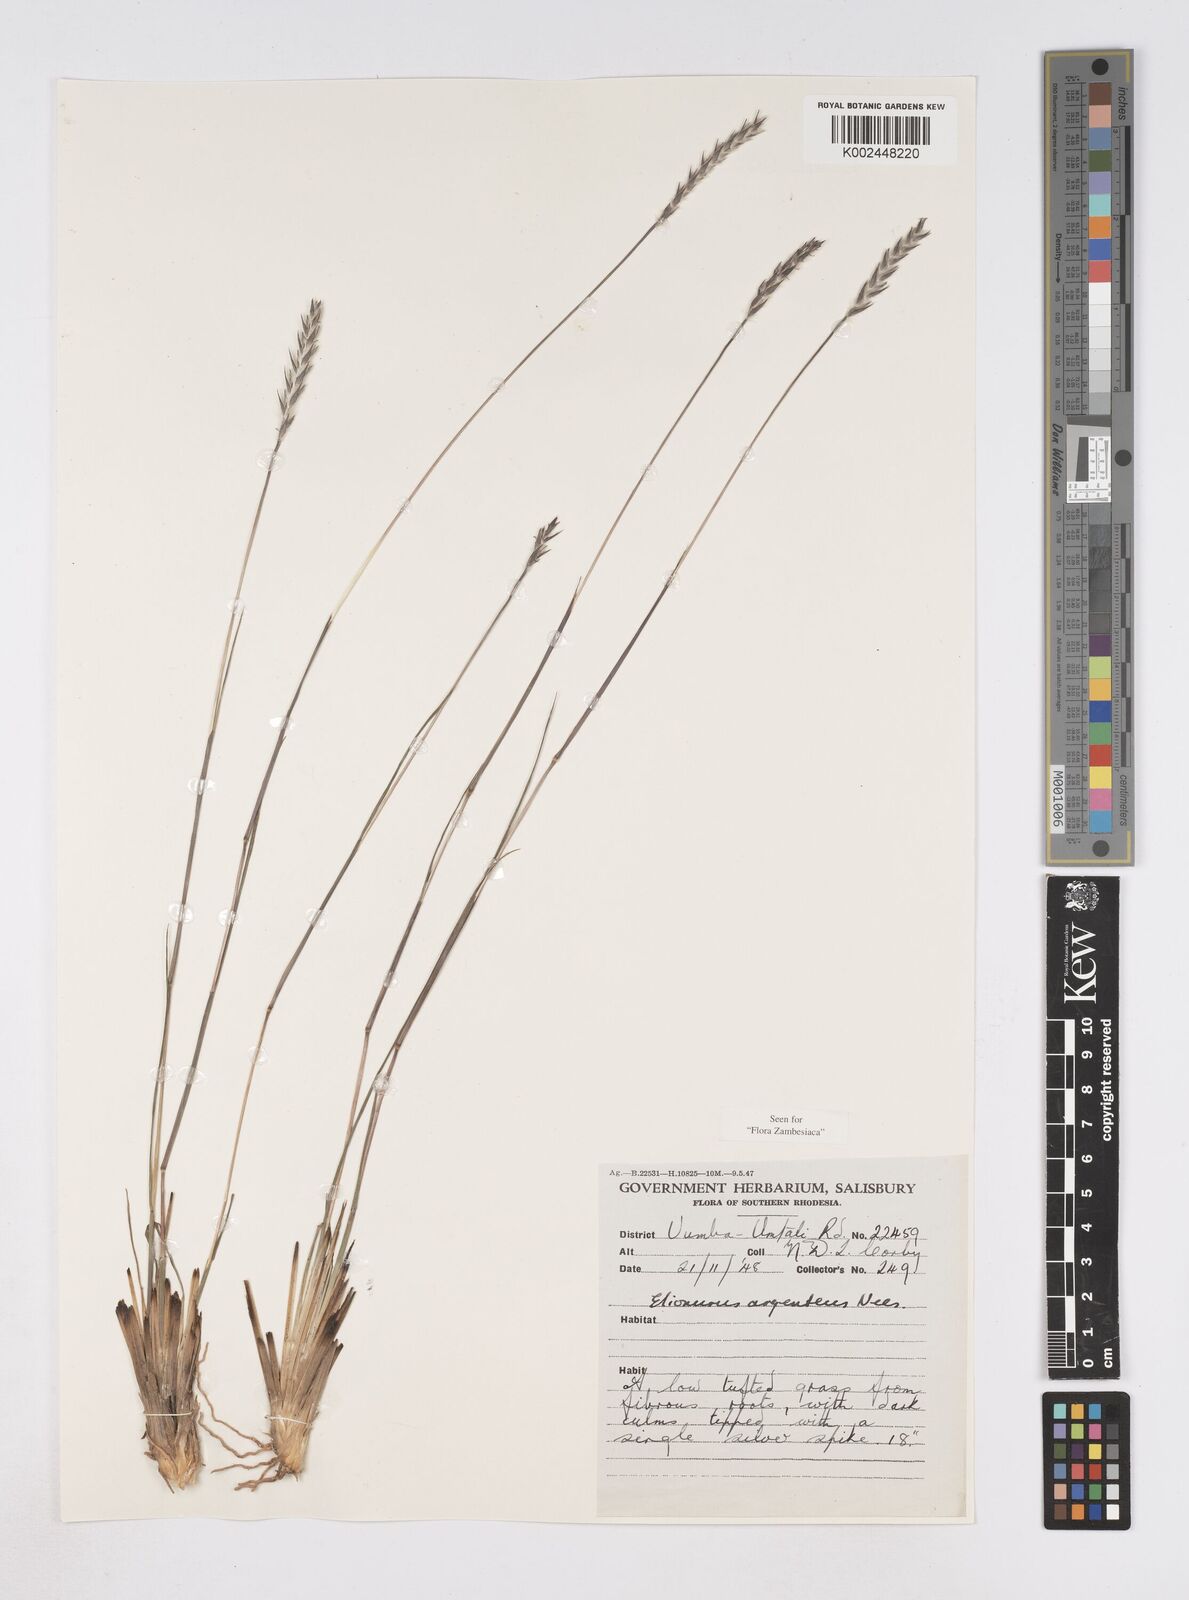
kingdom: Plantae
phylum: Tracheophyta
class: Liliopsida
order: Poales
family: Poaceae
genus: Elionurus
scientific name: Elionurus muticus
